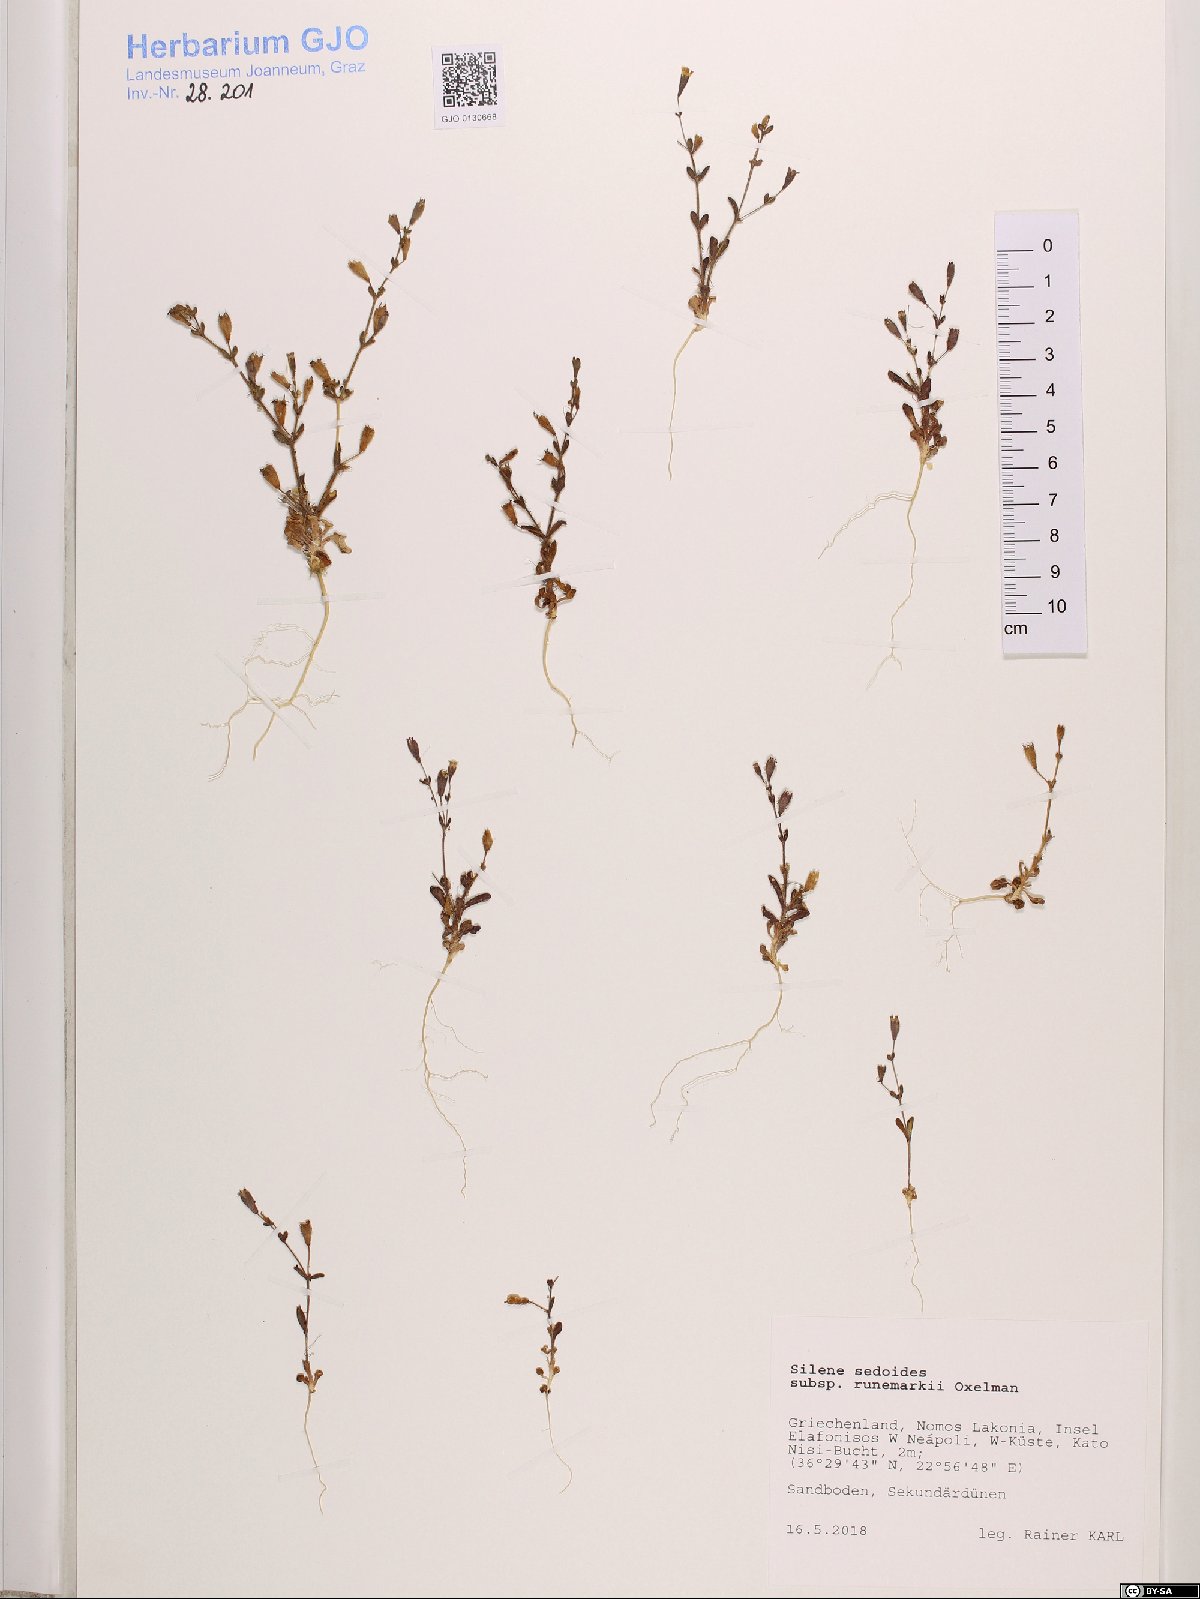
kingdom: Plantae
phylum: Tracheophyta
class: Magnoliopsida
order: Caryophyllales
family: Caryophyllaceae
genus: Silene
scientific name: Silene sedoides
